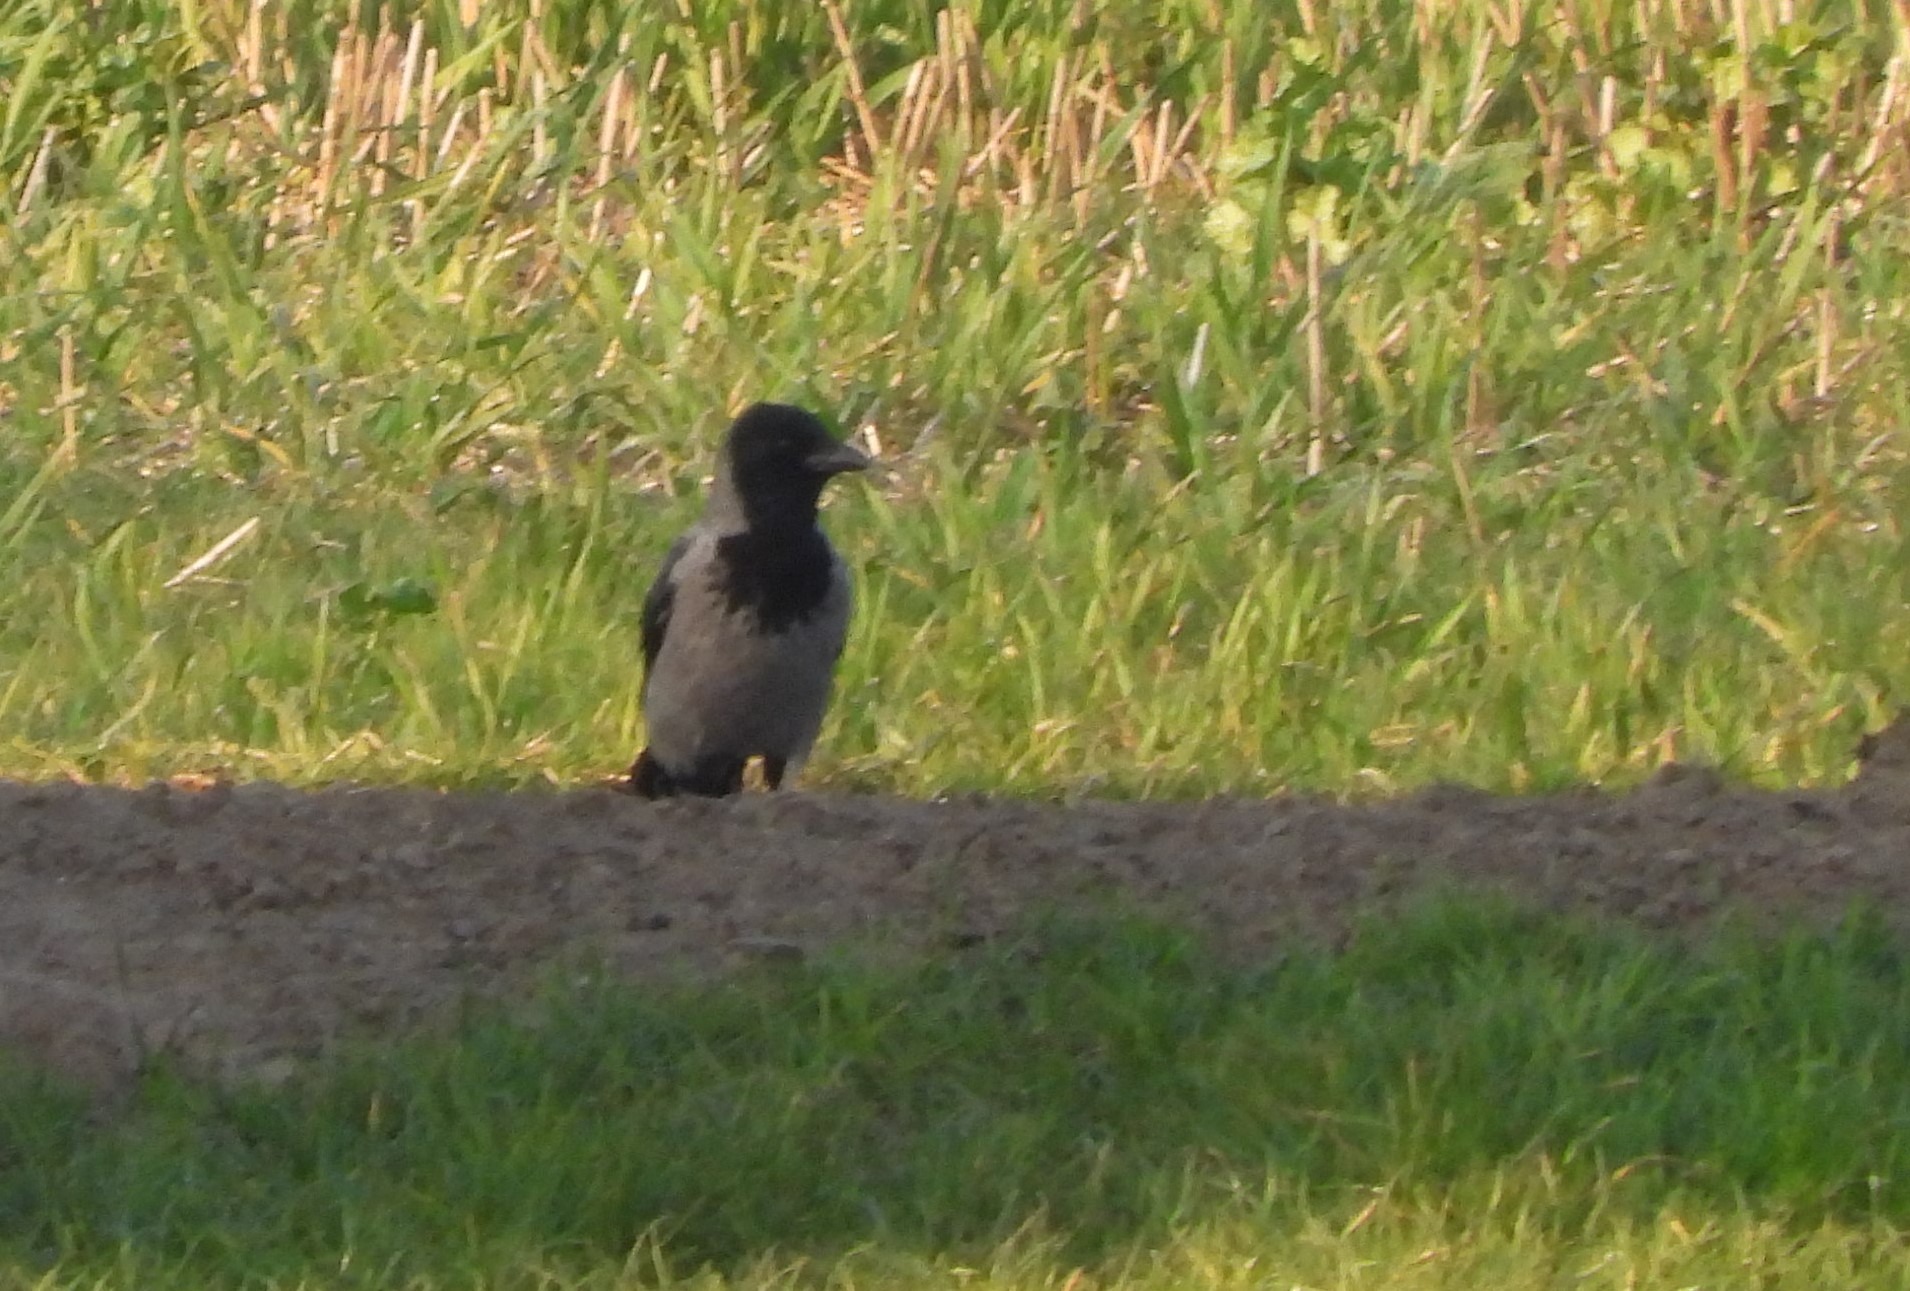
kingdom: Animalia
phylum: Chordata
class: Aves
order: Passeriformes
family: Corvidae
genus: Corvus
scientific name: Corvus cornix
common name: Gråkrage
